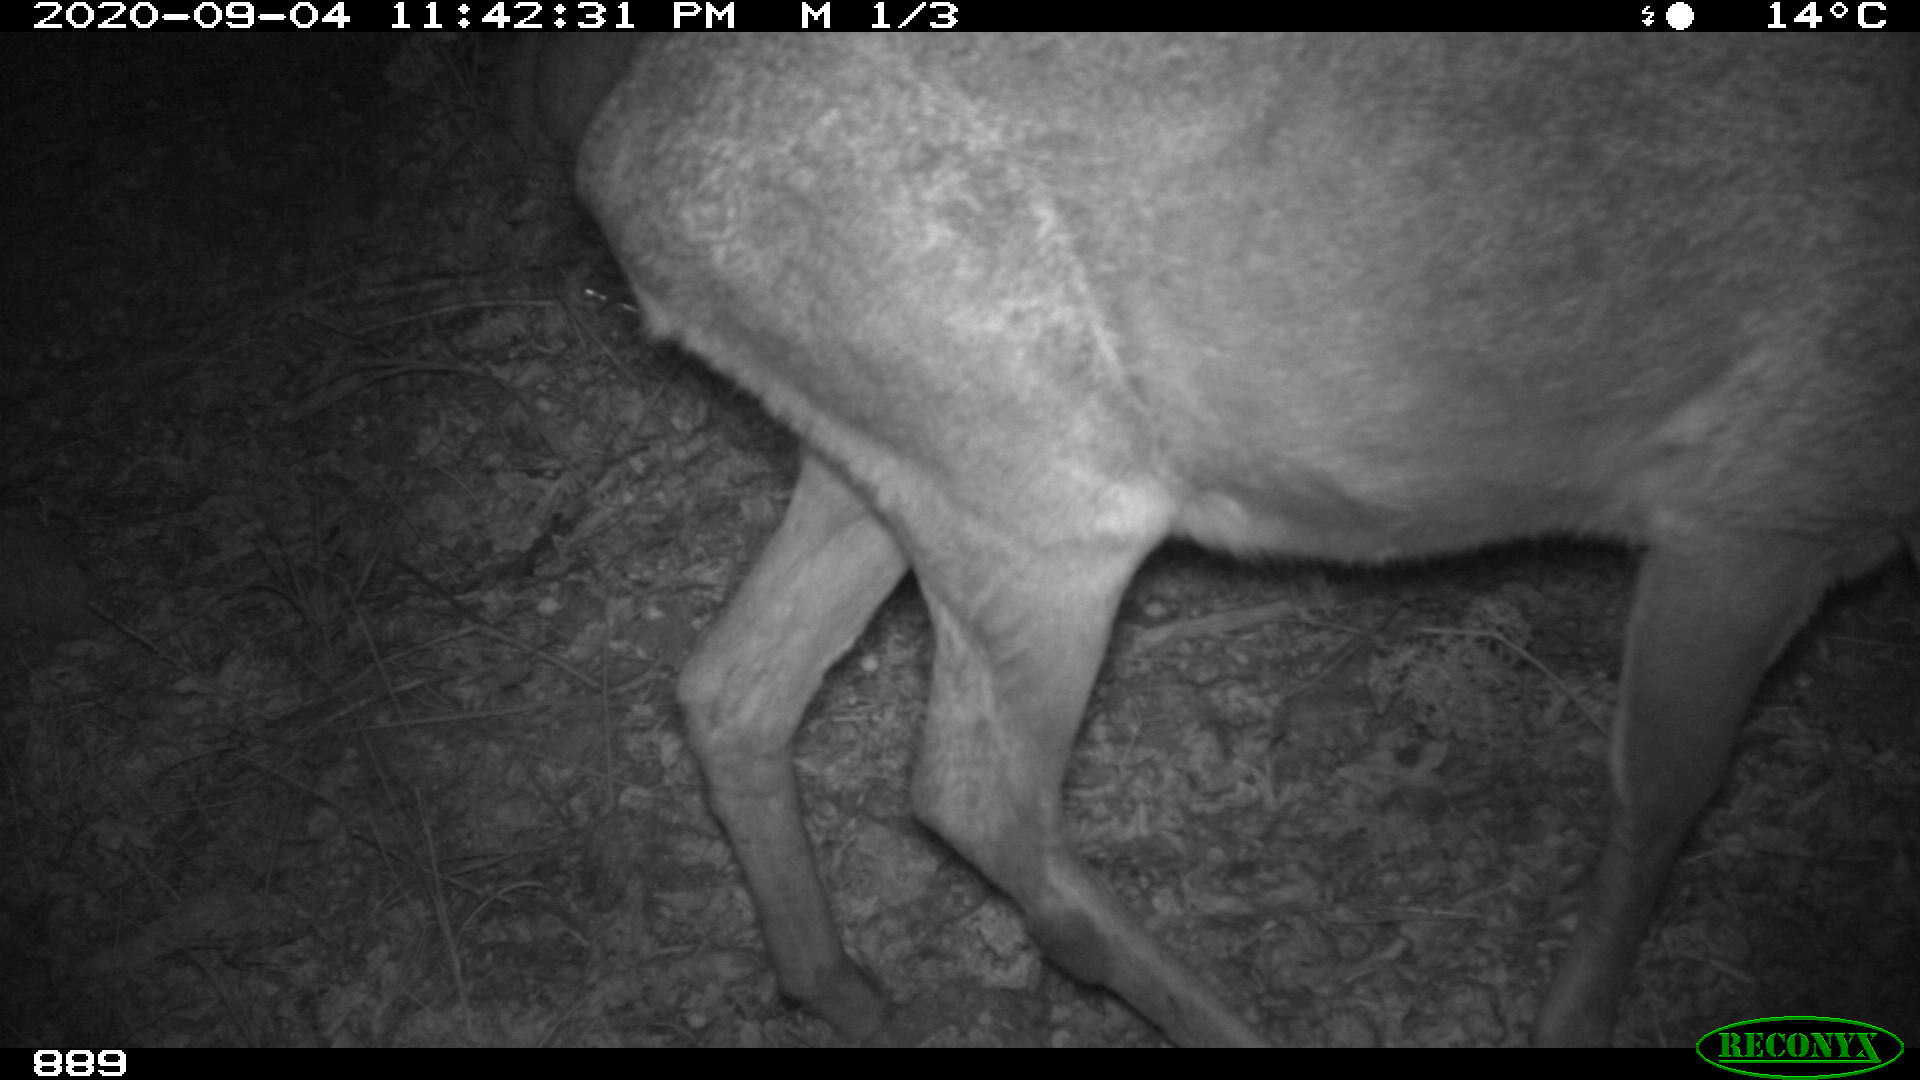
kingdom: Animalia
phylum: Chordata
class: Mammalia
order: Artiodactyla
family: Cervidae
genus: Capreolus
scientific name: Capreolus capreolus
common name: Western roe deer
